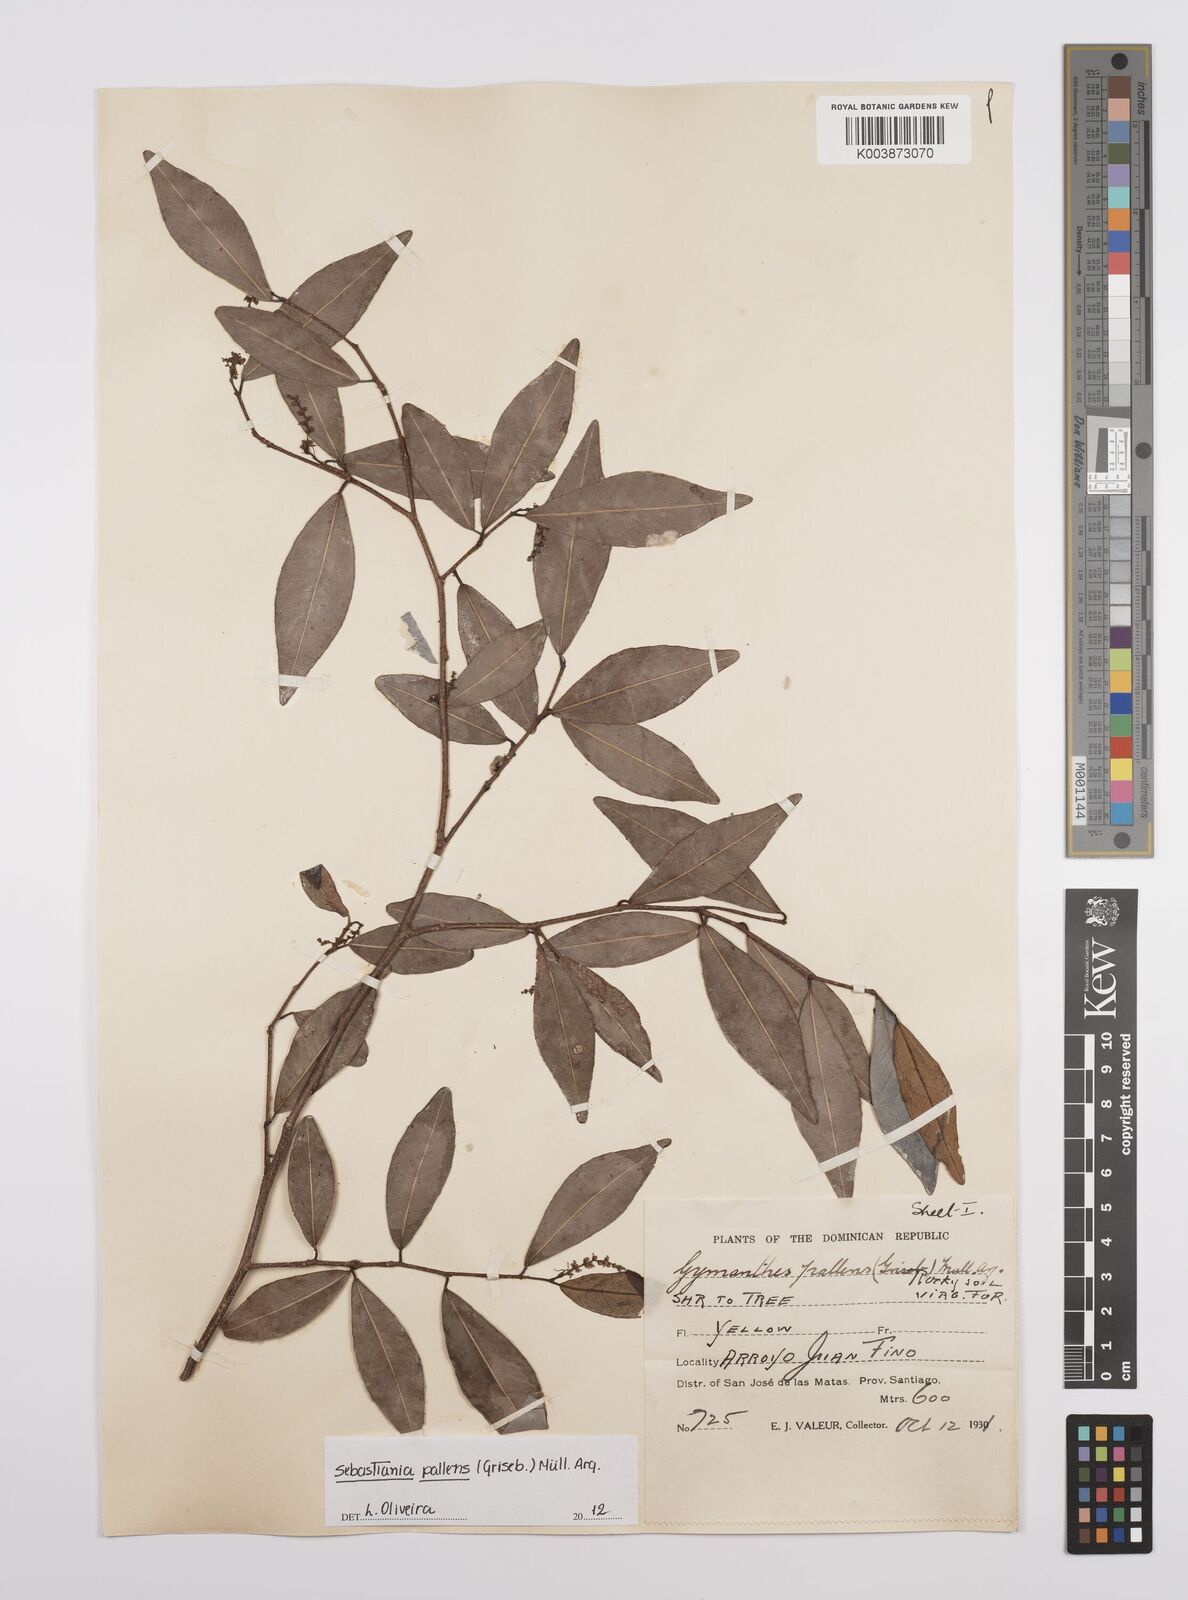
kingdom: Plantae
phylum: Tracheophyta
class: Magnoliopsida
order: Malpighiales
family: Euphorbiaceae
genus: Gymnanthes
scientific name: Gymnanthes pallens
